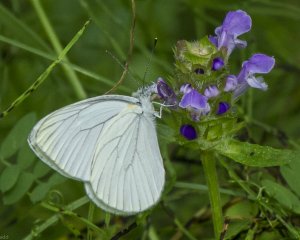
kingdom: Animalia
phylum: Arthropoda
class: Insecta
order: Lepidoptera
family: Pieridae
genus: Pieris
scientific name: Pieris oleracea
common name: Mustard White
